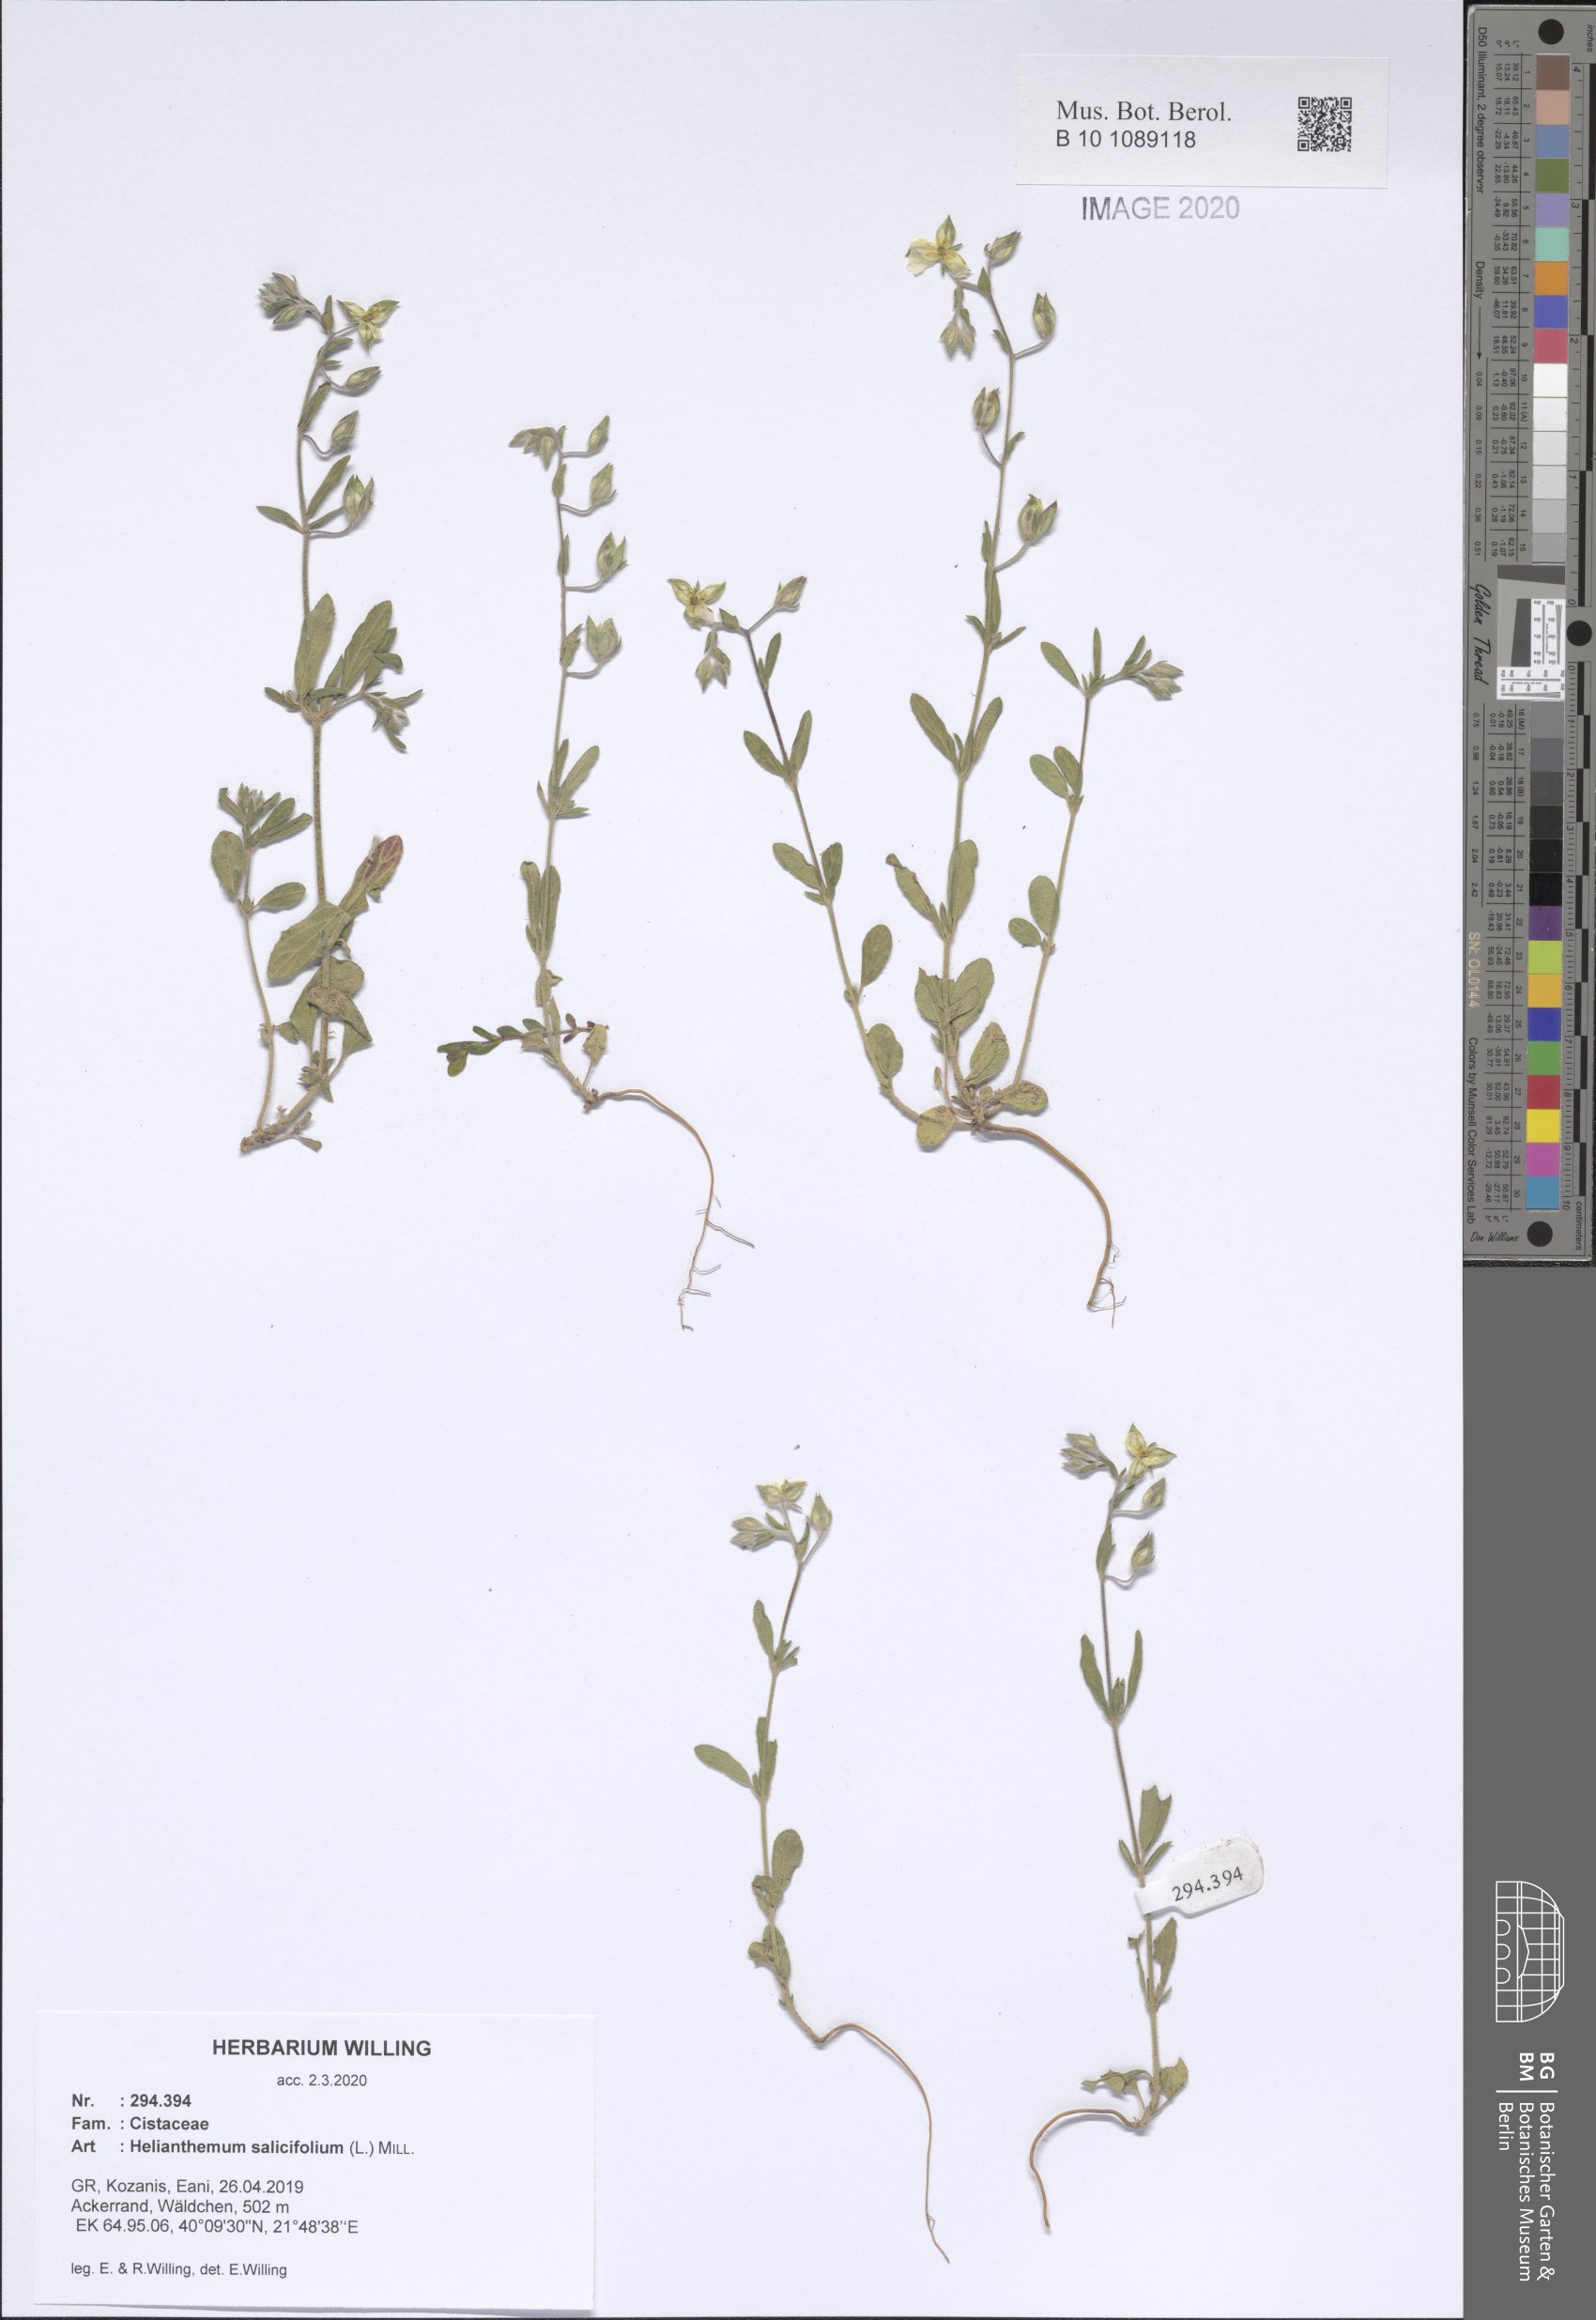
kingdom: Plantae
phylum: Tracheophyta
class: Magnoliopsida
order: Malvales
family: Cistaceae
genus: Helianthemum
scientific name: Helianthemum salicifolium
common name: Willowleaf frostweed
